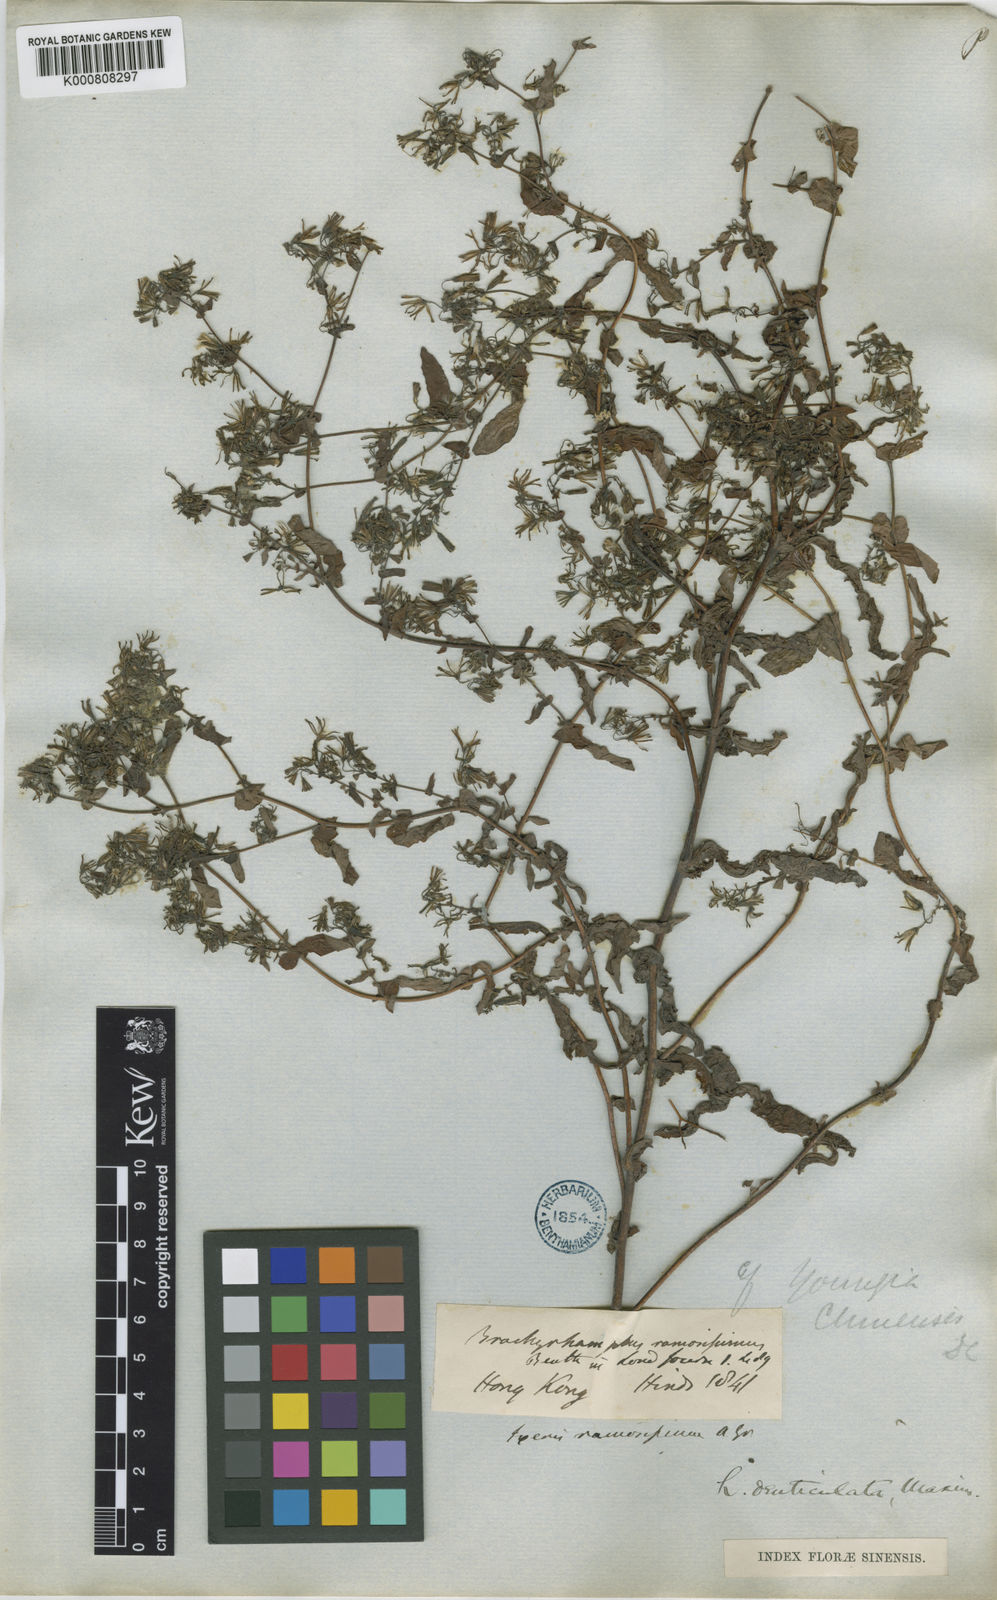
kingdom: Plantae
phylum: Tracheophyta
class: Magnoliopsida
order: Asterales
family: Asteraceae
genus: Crepidiastrum
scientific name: Crepidiastrum denticulatum
